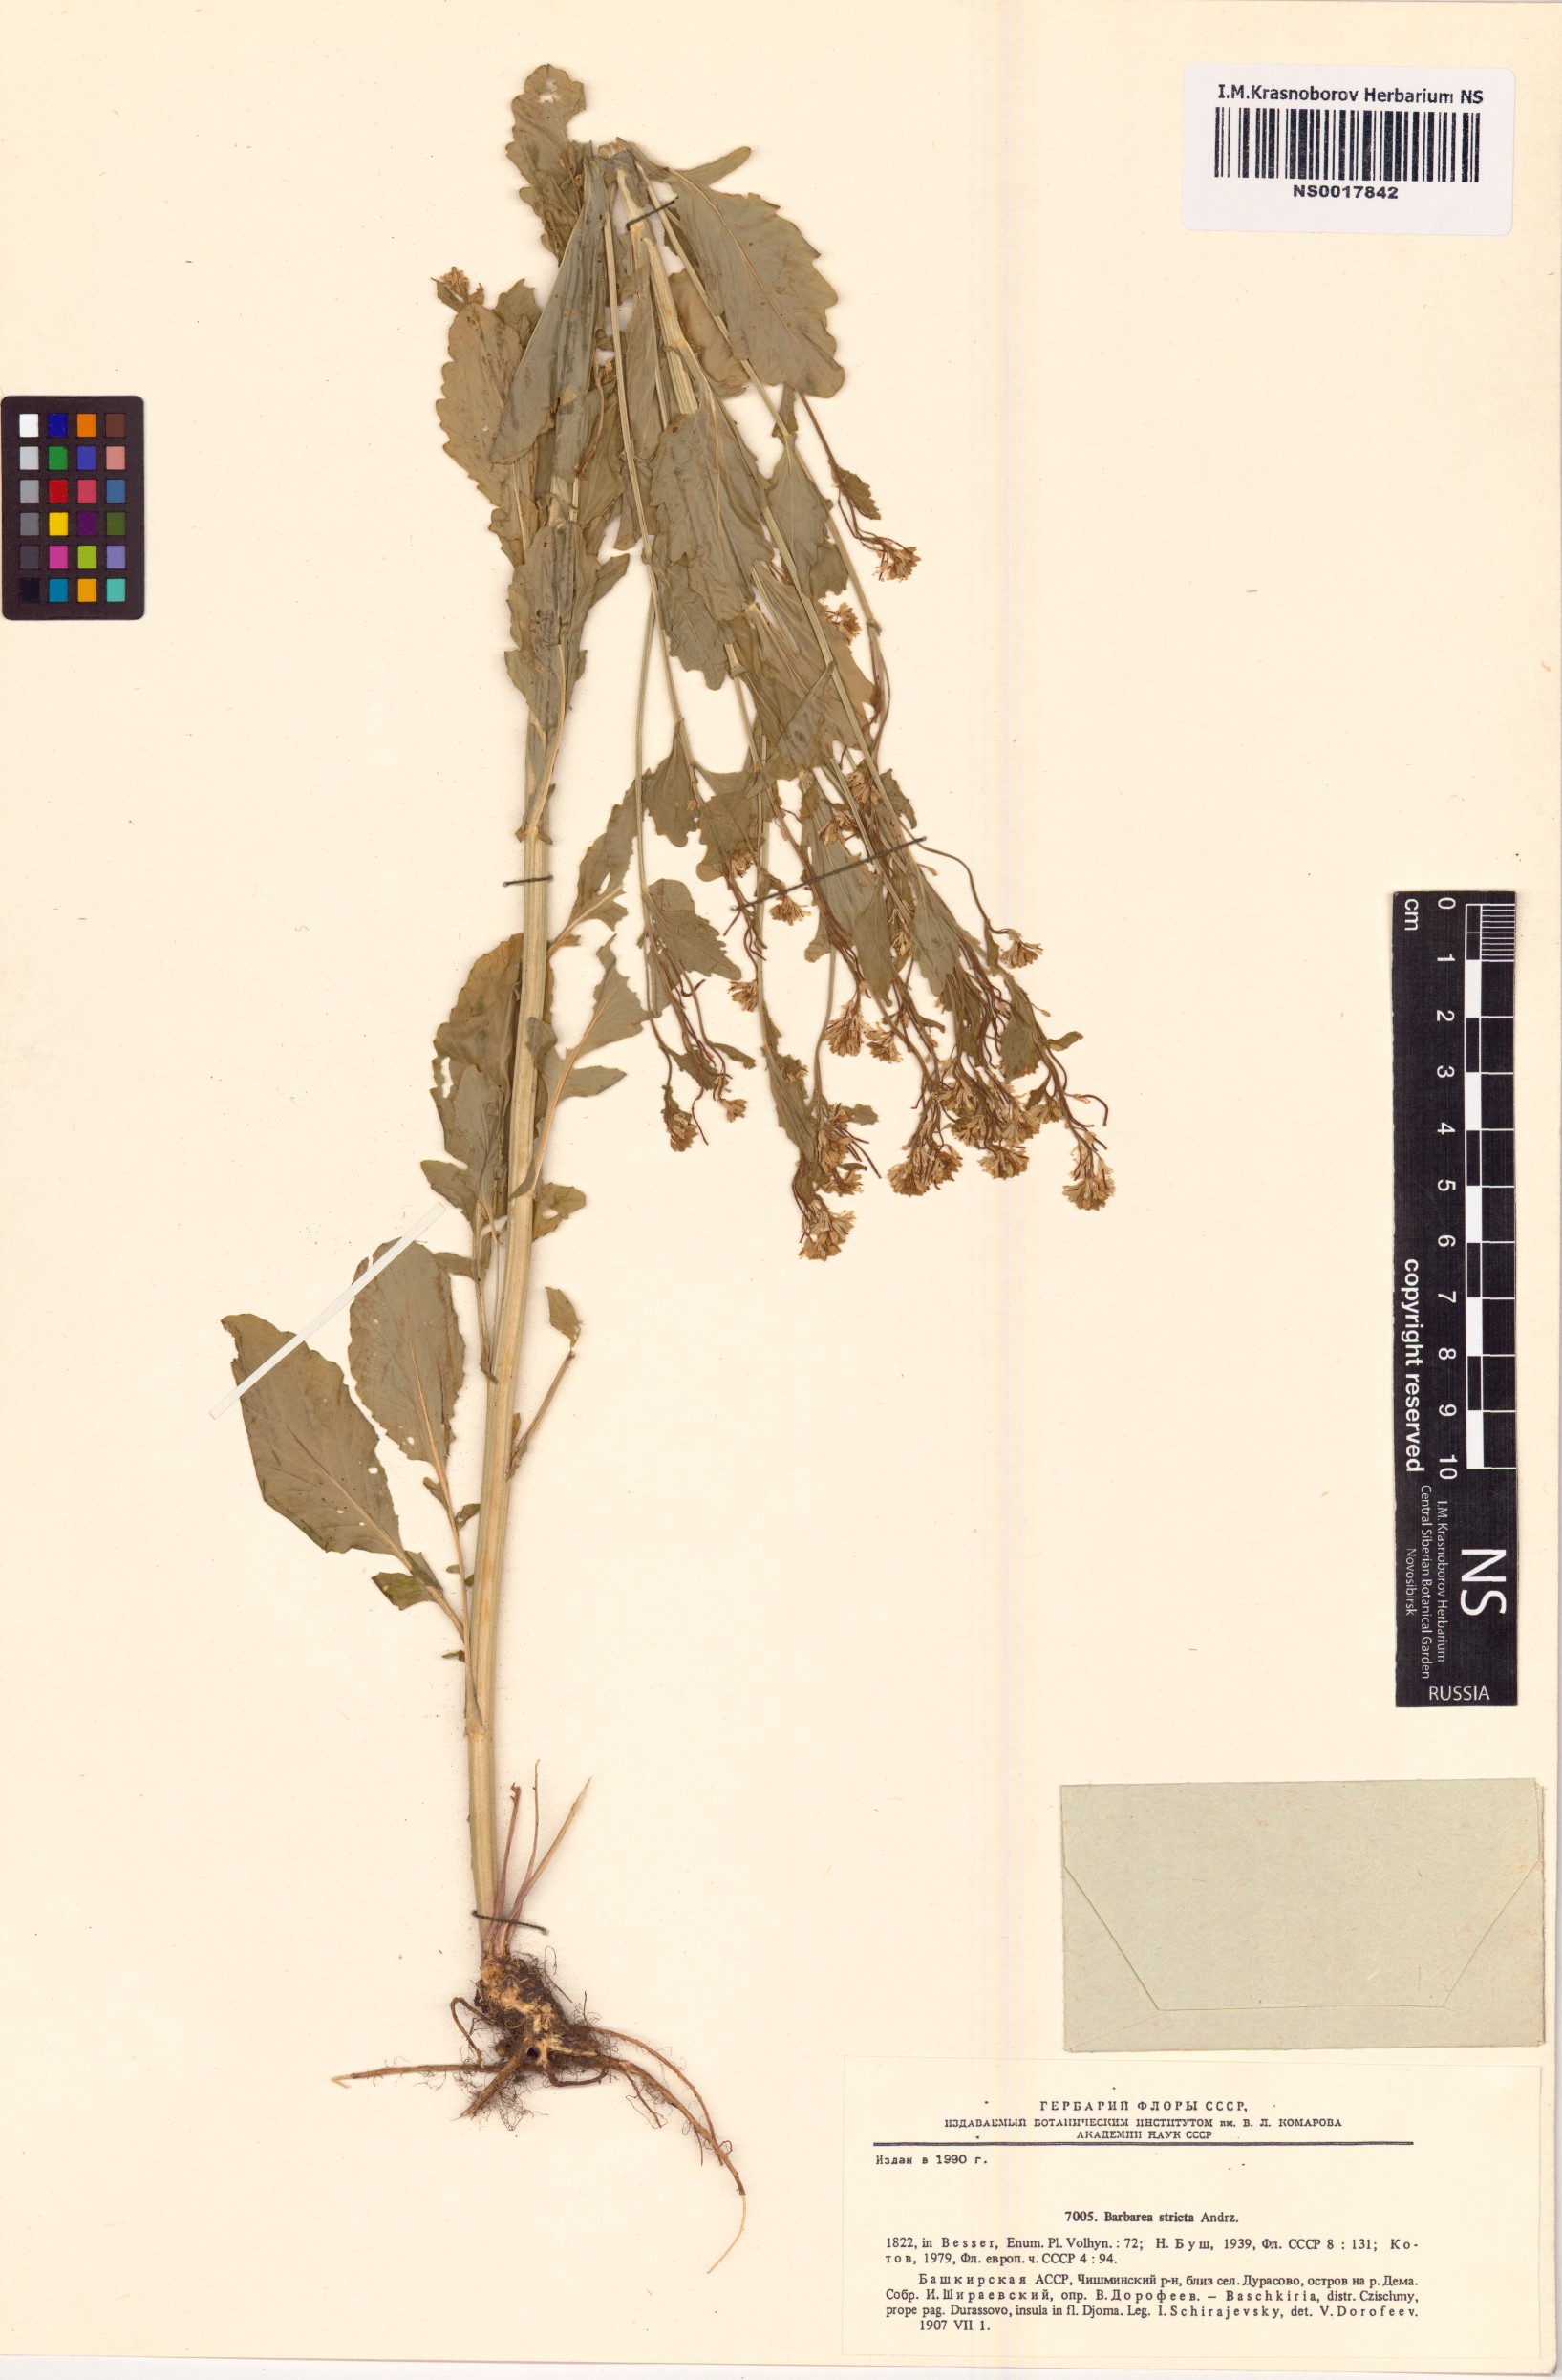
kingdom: Plantae
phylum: Tracheophyta
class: Magnoliopsida
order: Brassicales
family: Brassicaceae
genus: Barbarea
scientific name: Barbarea stricta
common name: Small-flowered winter-cress
